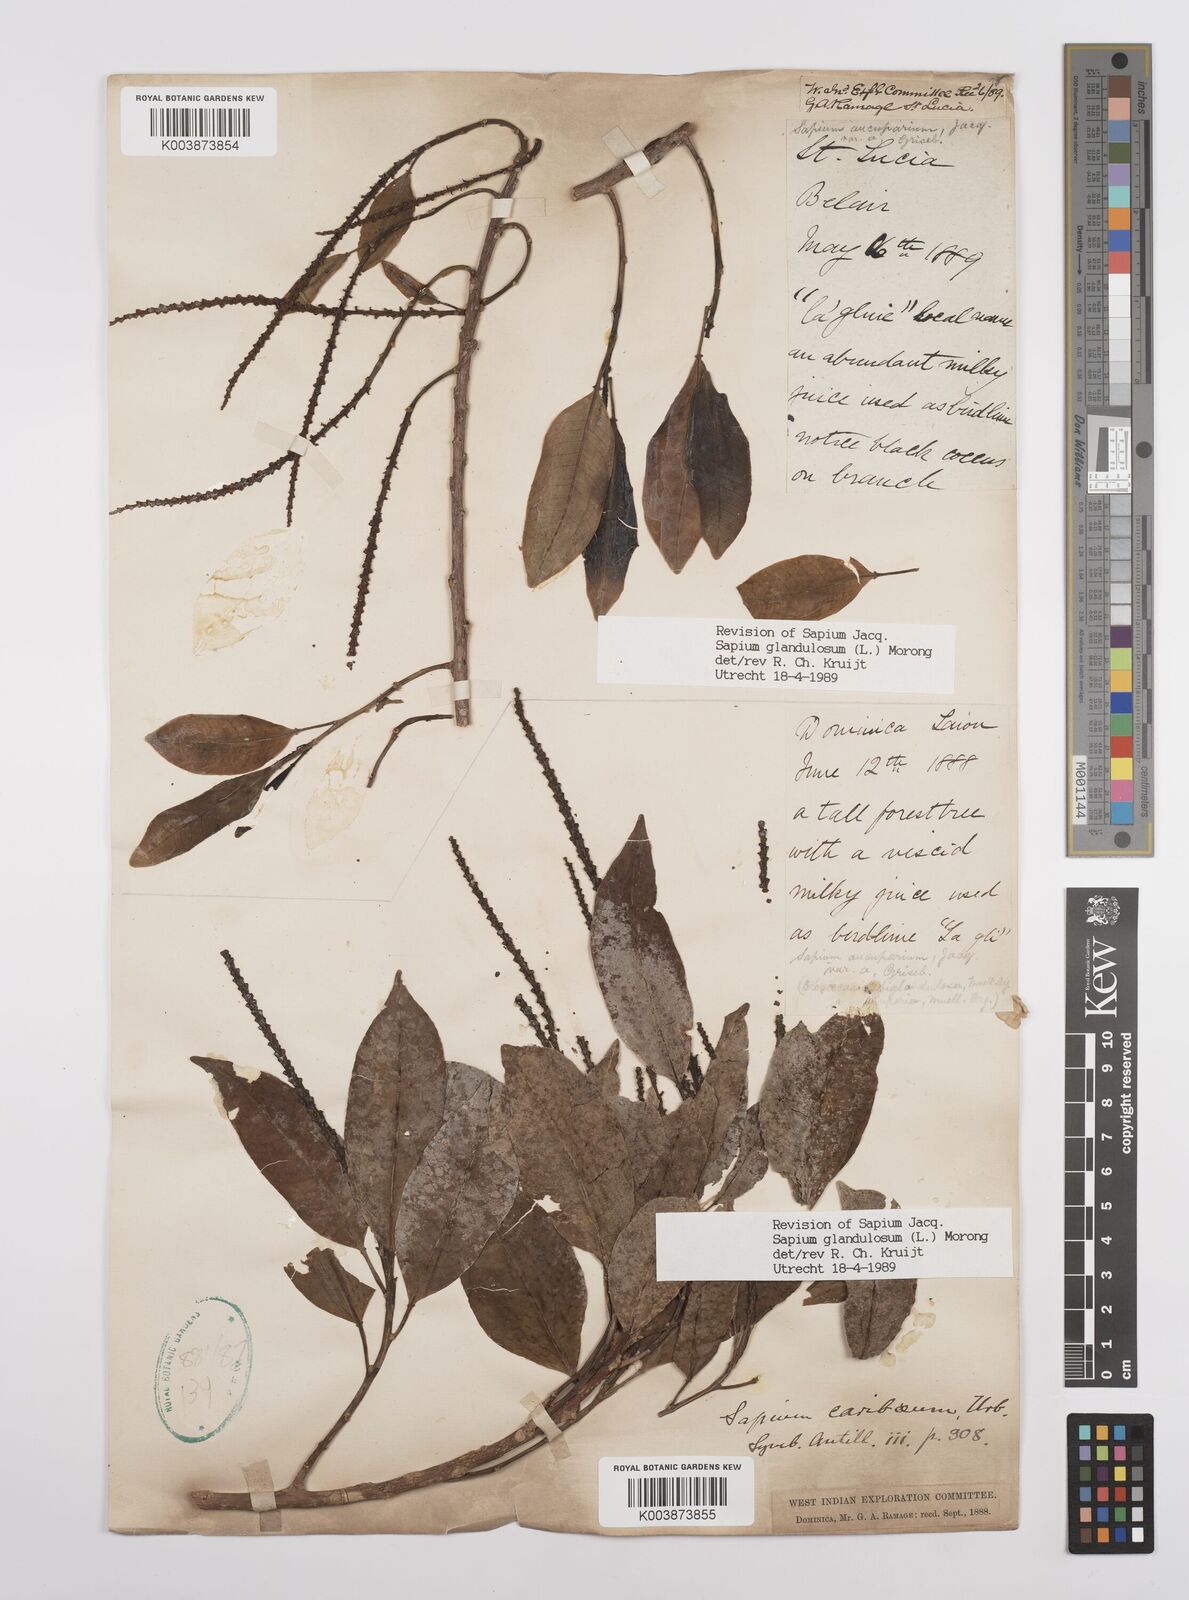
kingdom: Plantae
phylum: Tracheophyta
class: Magnoliopsida
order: Malpighiales
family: Euphorbiaceae
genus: Sapium
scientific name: Sapium glandulosum
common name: Milktree
